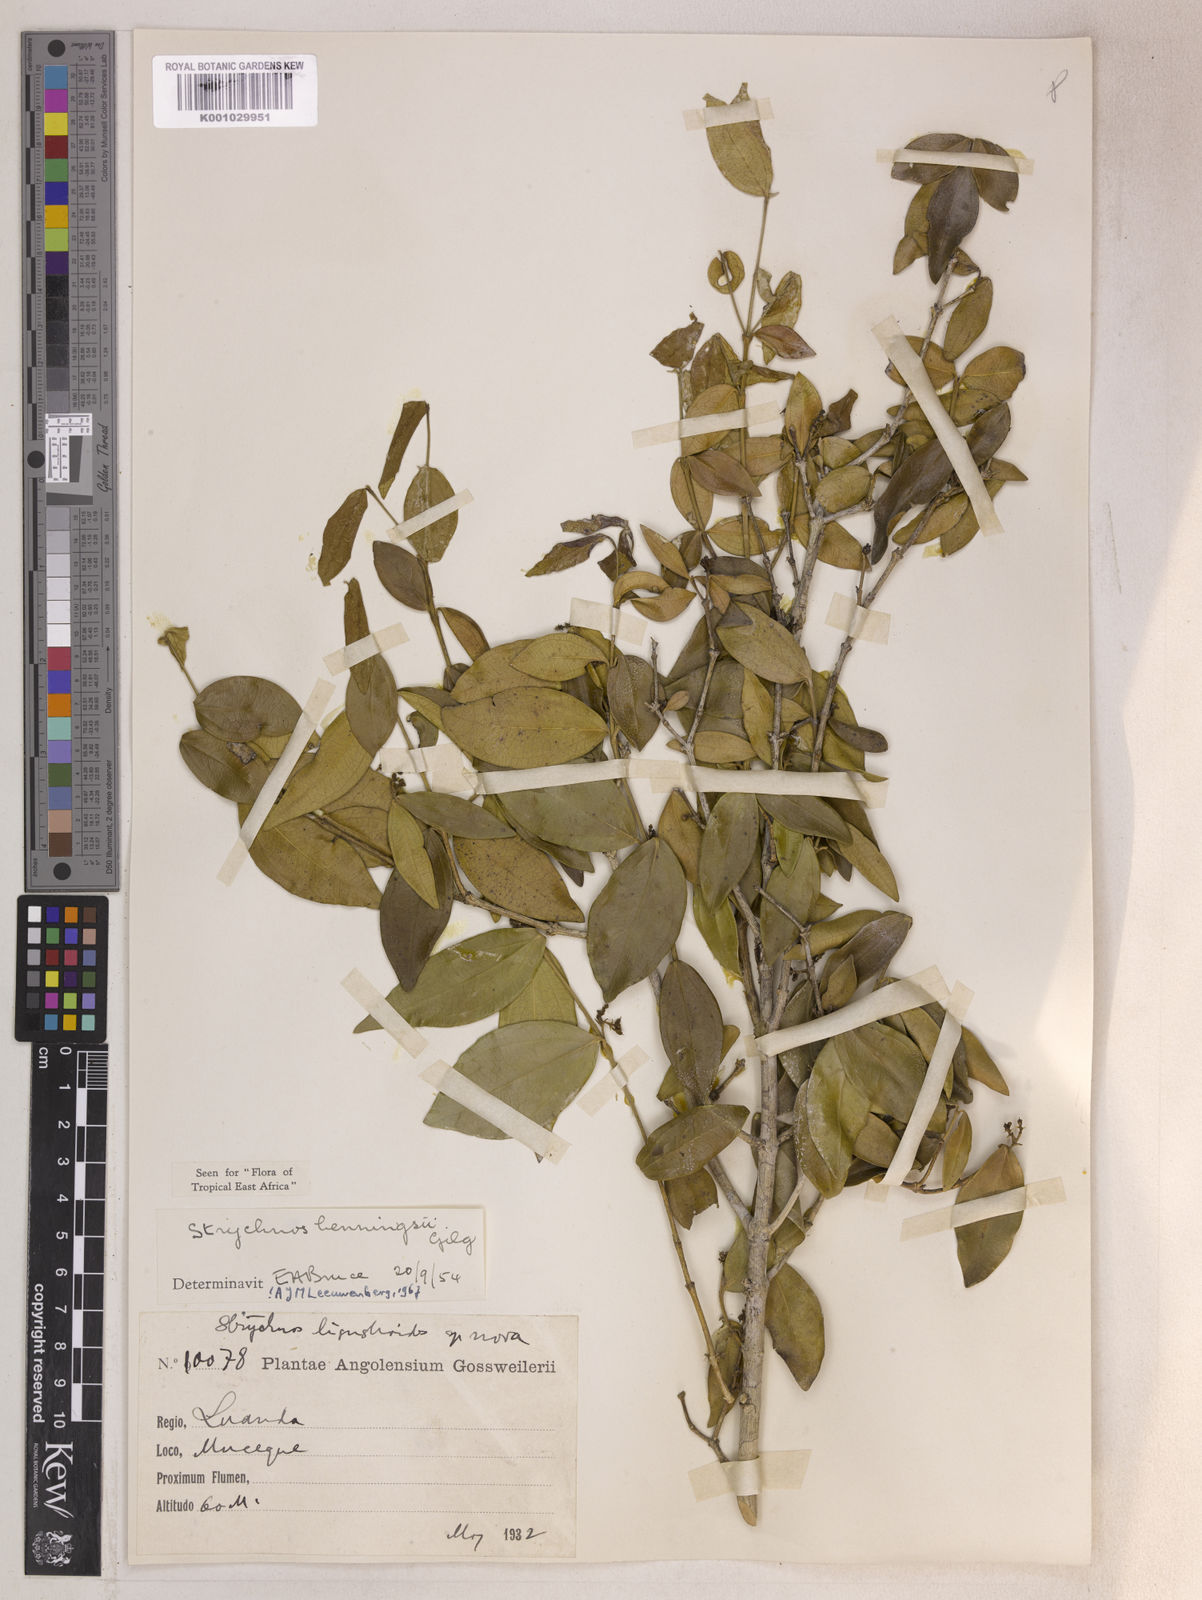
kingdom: Plantae
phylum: Tracheophyta
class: Magnoliopsida
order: Gentianales
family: Loganiaceae
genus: Strychnos
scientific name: Strychnos henningsii
